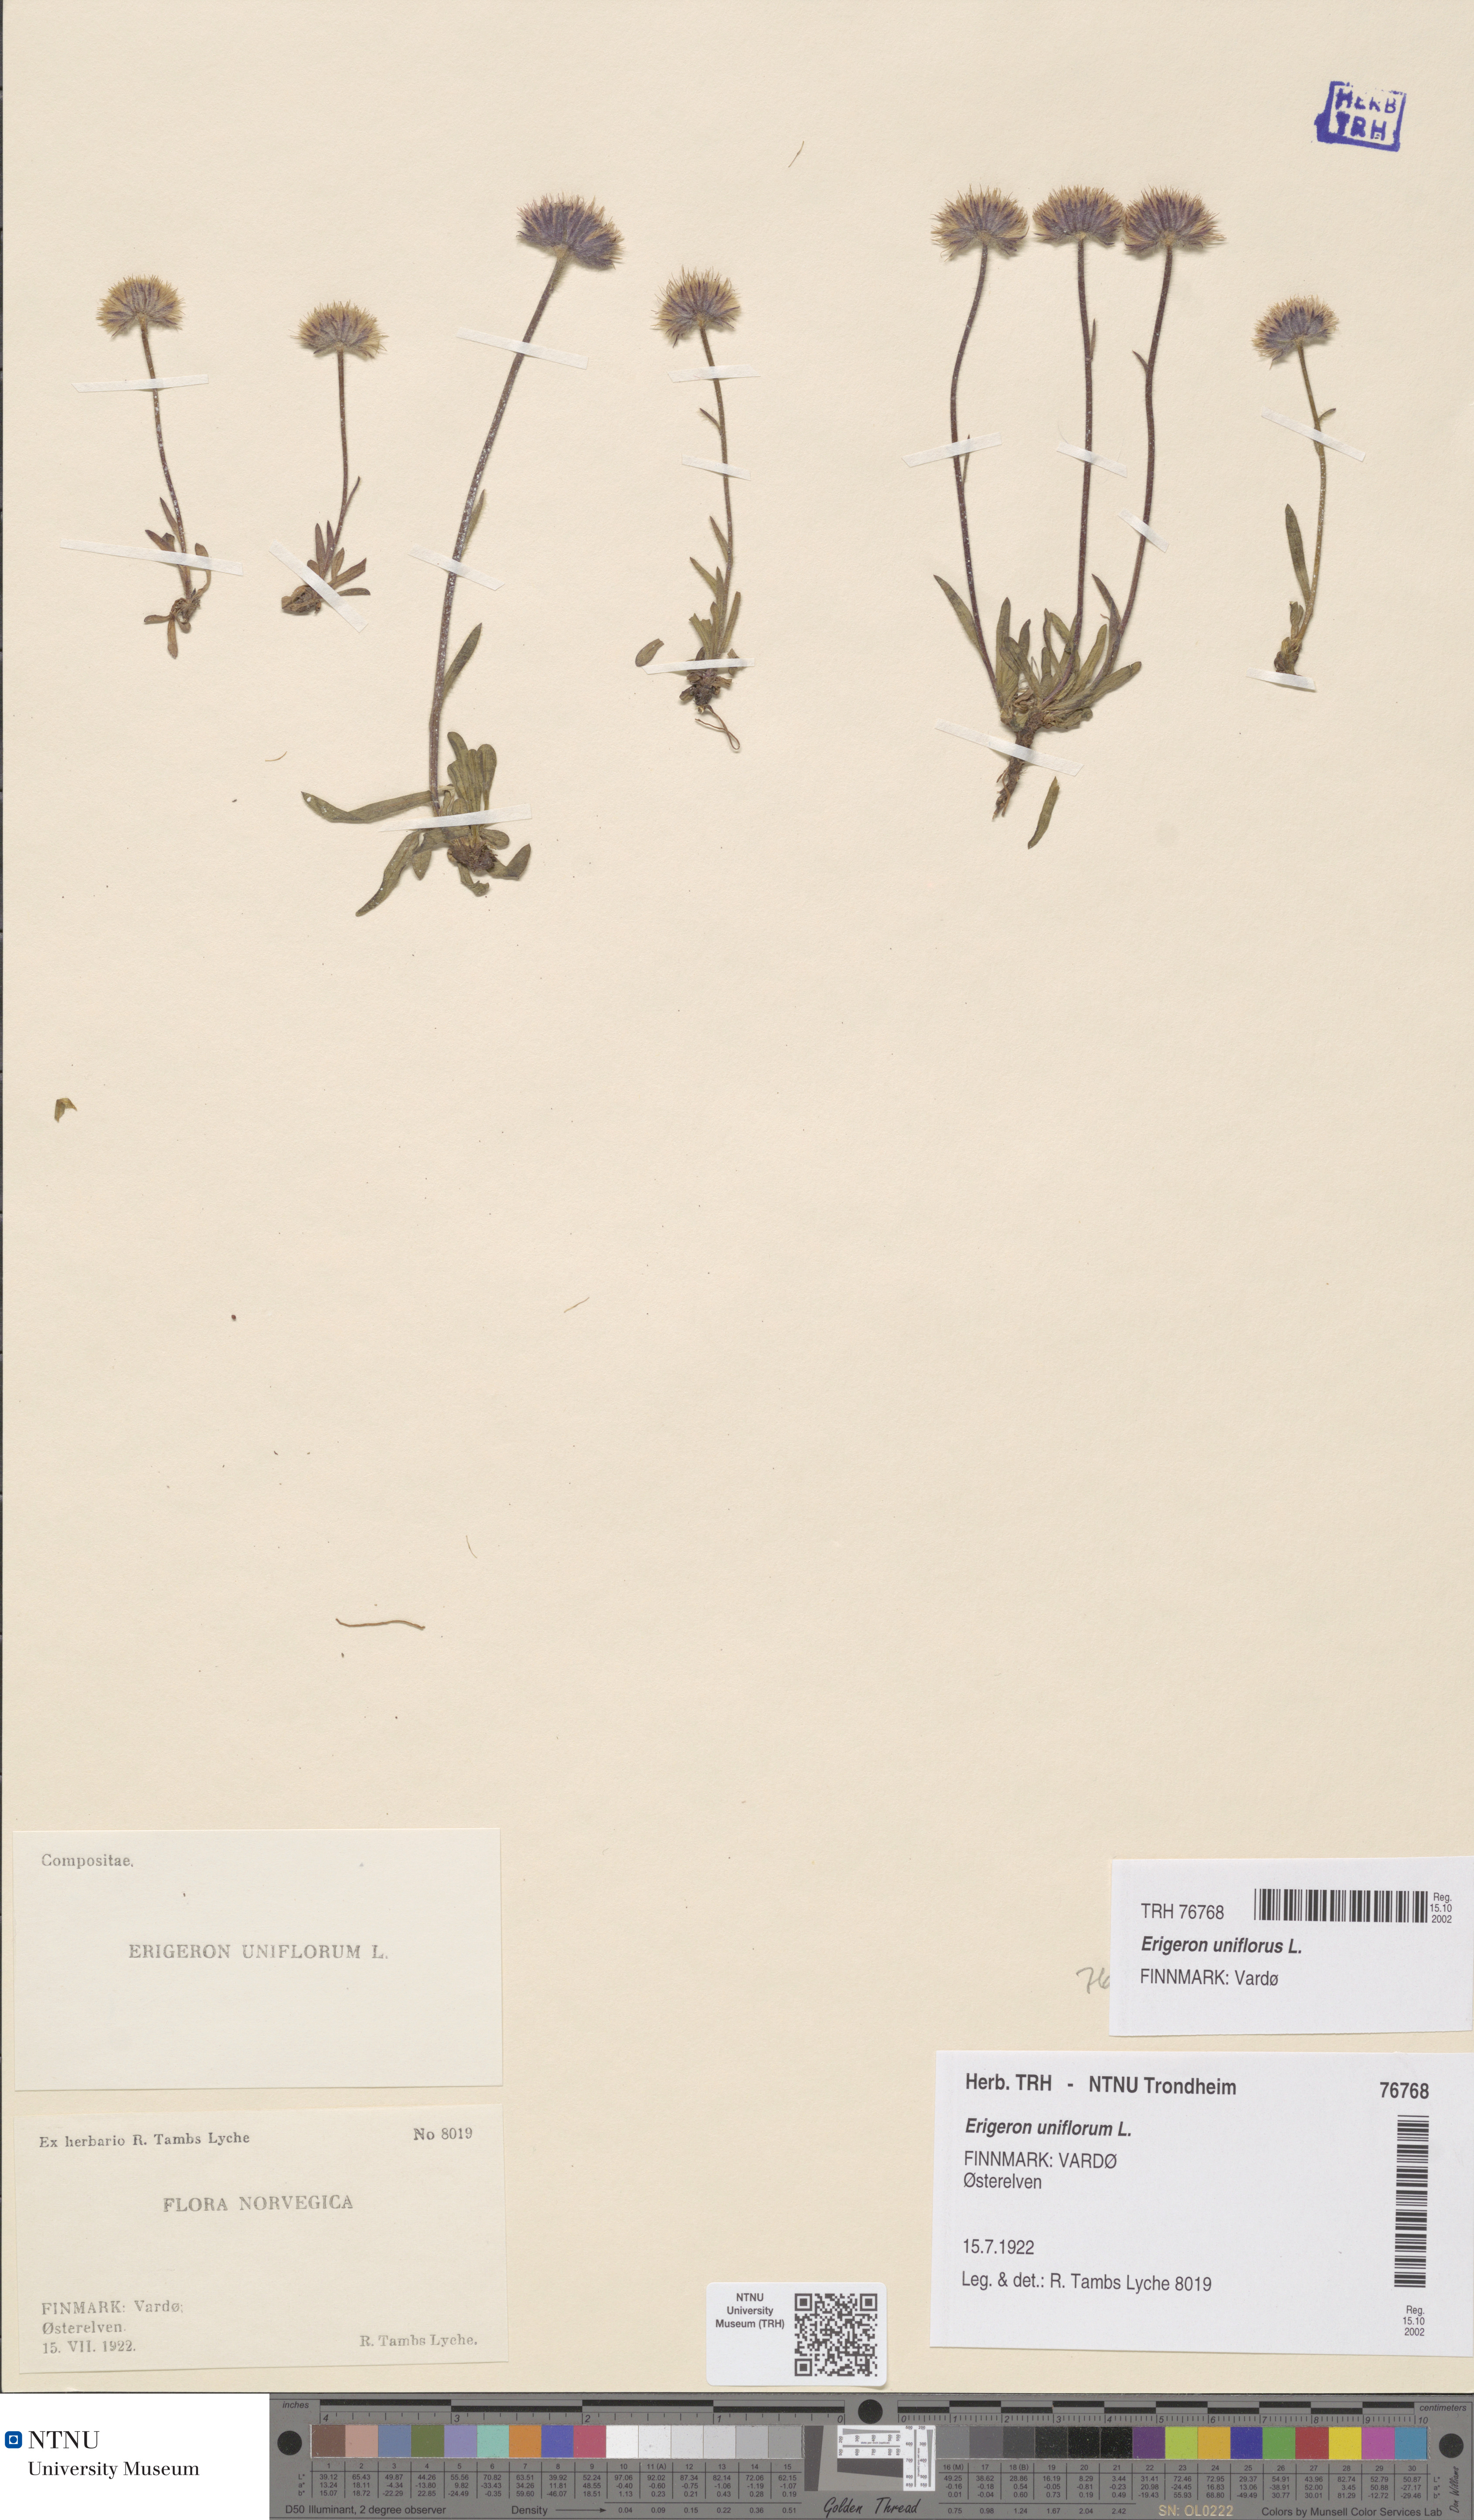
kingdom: Plantae
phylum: Tracheophyta
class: Magnoliopsida
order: Asterales
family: Asteraceae
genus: Erigeron
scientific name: Erigeron uniflorus
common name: Northern daisy
